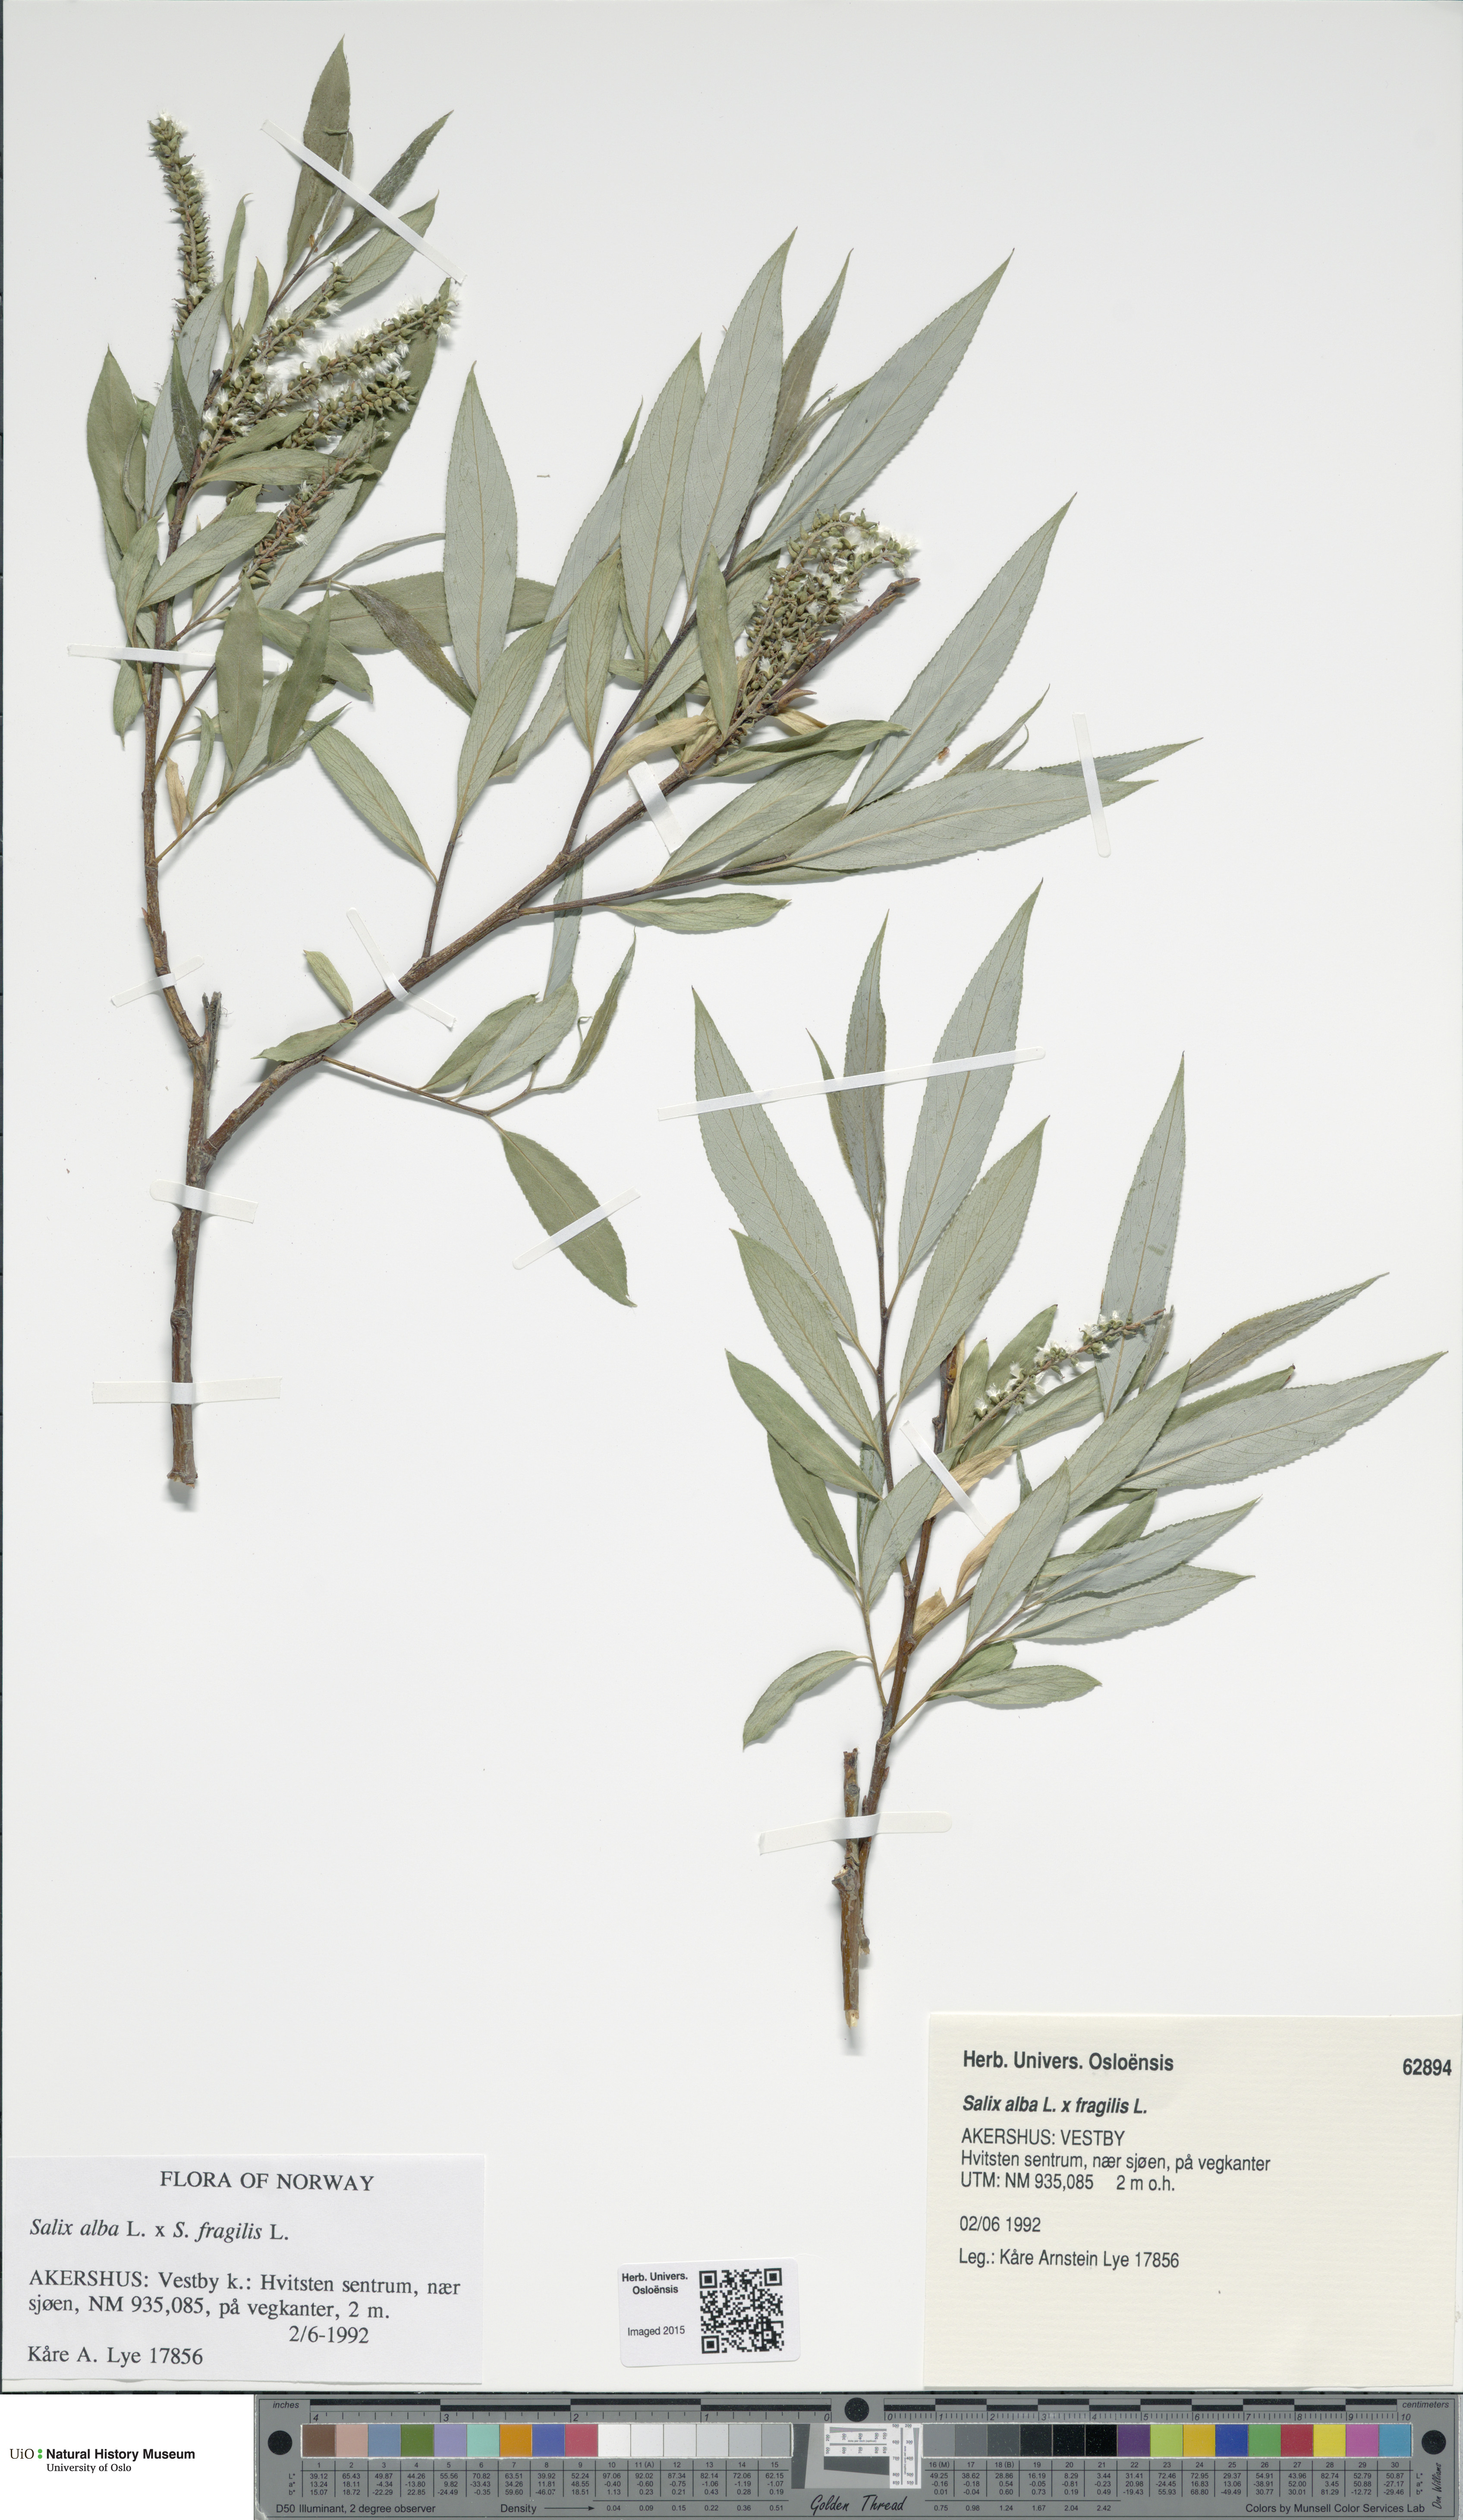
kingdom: Plantae
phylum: Tracheophyta
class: Magnoliopsida
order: Malpighiales
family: Salicaceae
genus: Salix
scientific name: Salix
